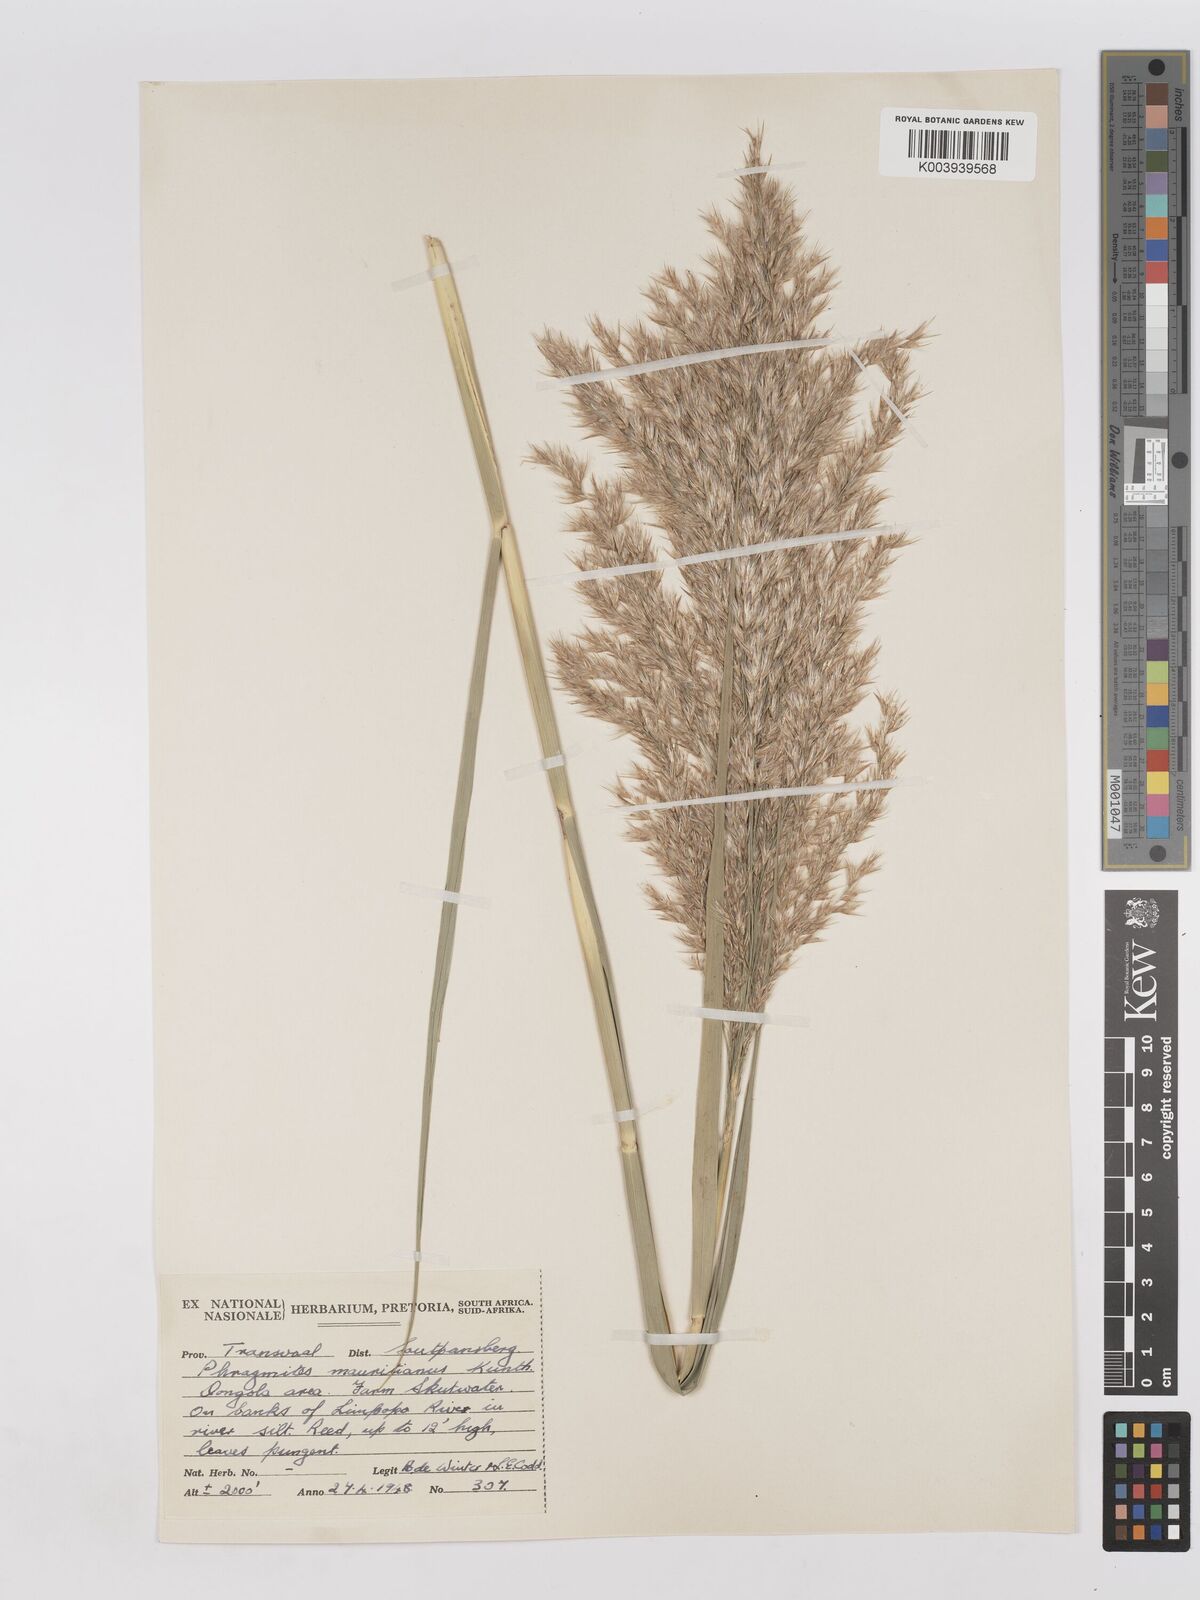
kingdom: Plantae
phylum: Tracheophyta
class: Liliopsida
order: Poales
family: Poaceae
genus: Phragmites
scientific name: Phragmites mauritianus
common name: Reed grass
